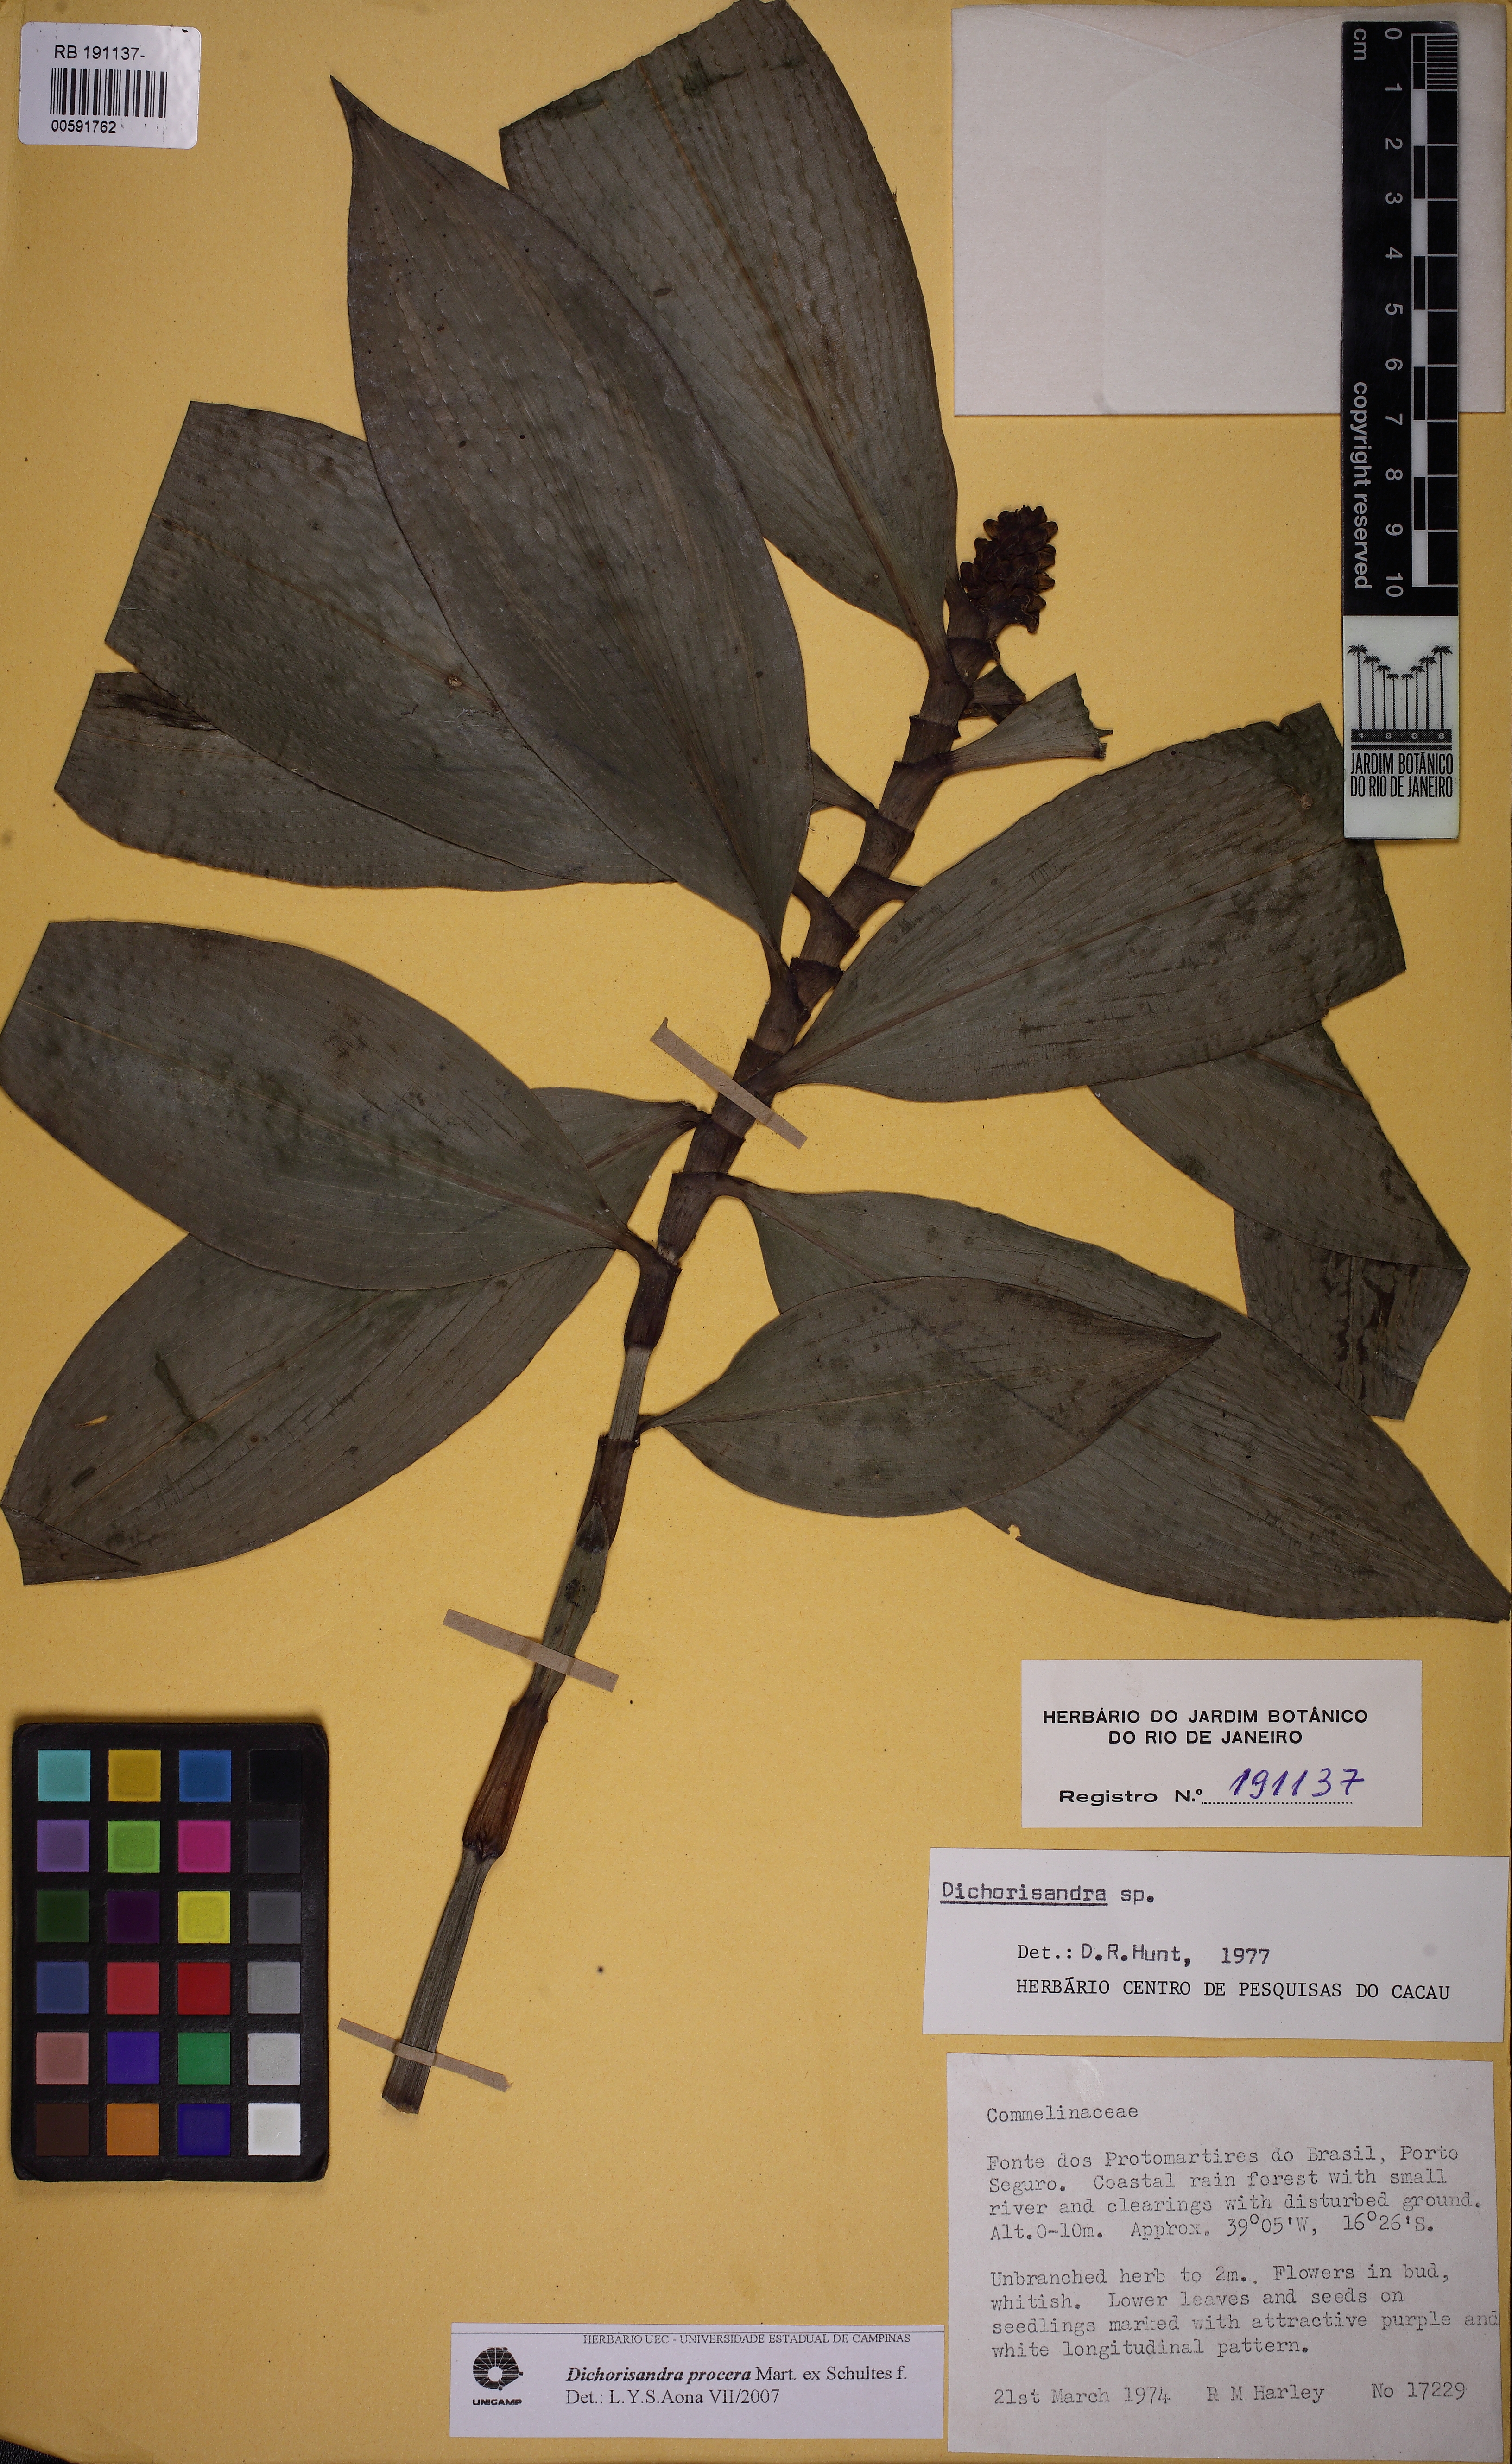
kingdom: Plantae
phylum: Tracheophyta
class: Liliopsida
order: Commelinales
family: Commelinaceae
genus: Dichorisandra
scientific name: Dichorisandra procera
